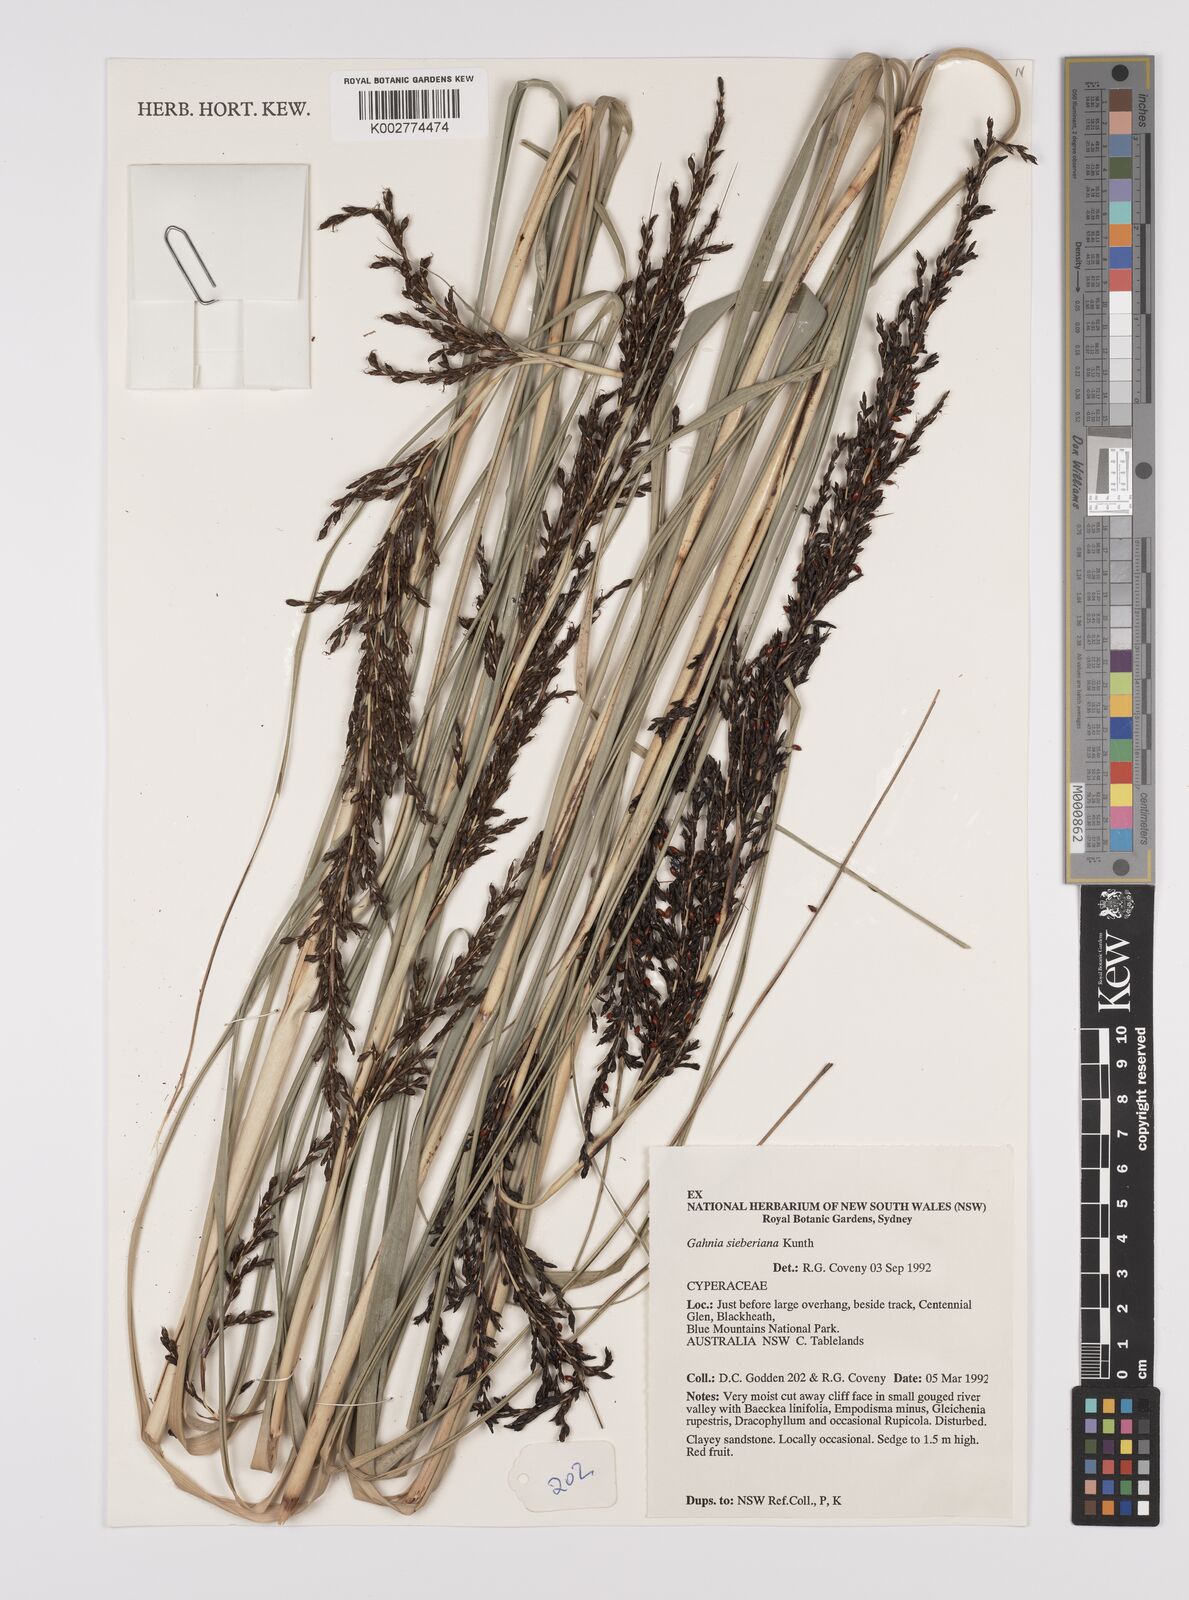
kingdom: Plantae
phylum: Tracheophyta
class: Liliopsida
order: Poales
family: Cyperaceae
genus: Gahnia
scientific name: Gahnia sieberiana
